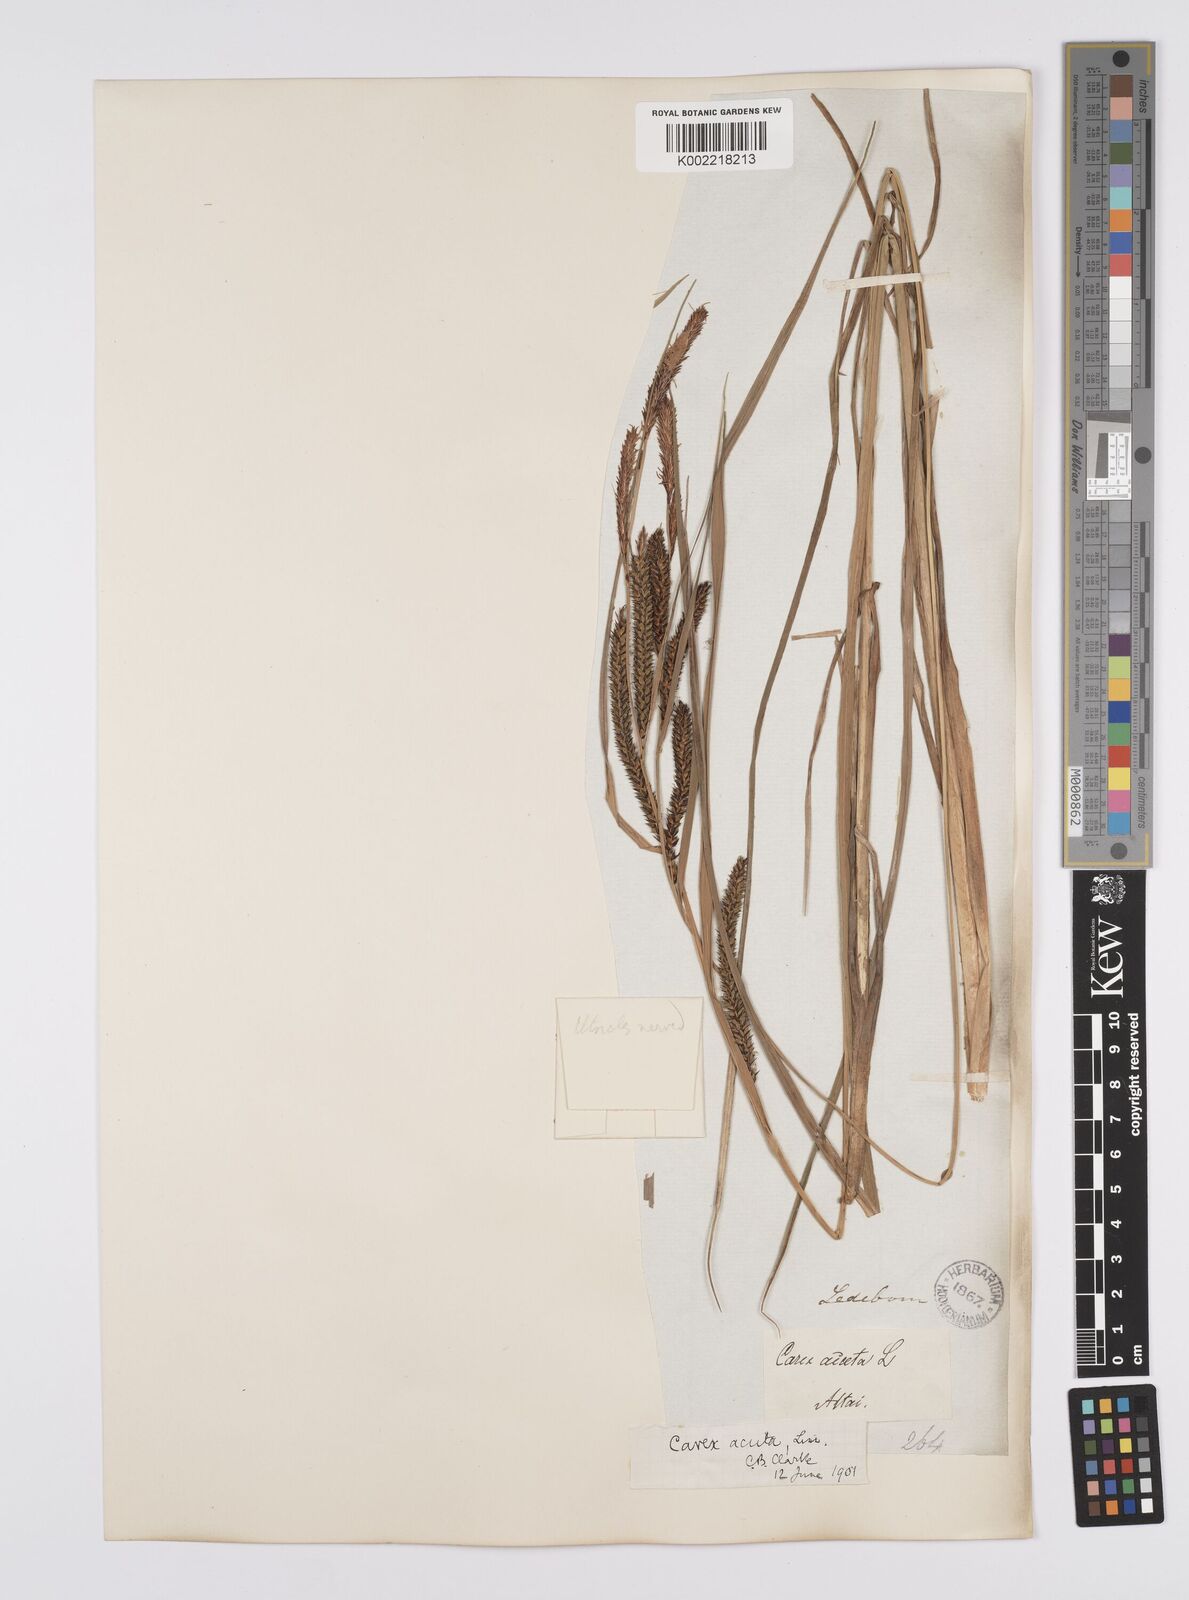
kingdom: Plantae
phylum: Tracheophyta
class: Liliopsida
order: Poales
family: Cyperaceae
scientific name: Cyperaceae
